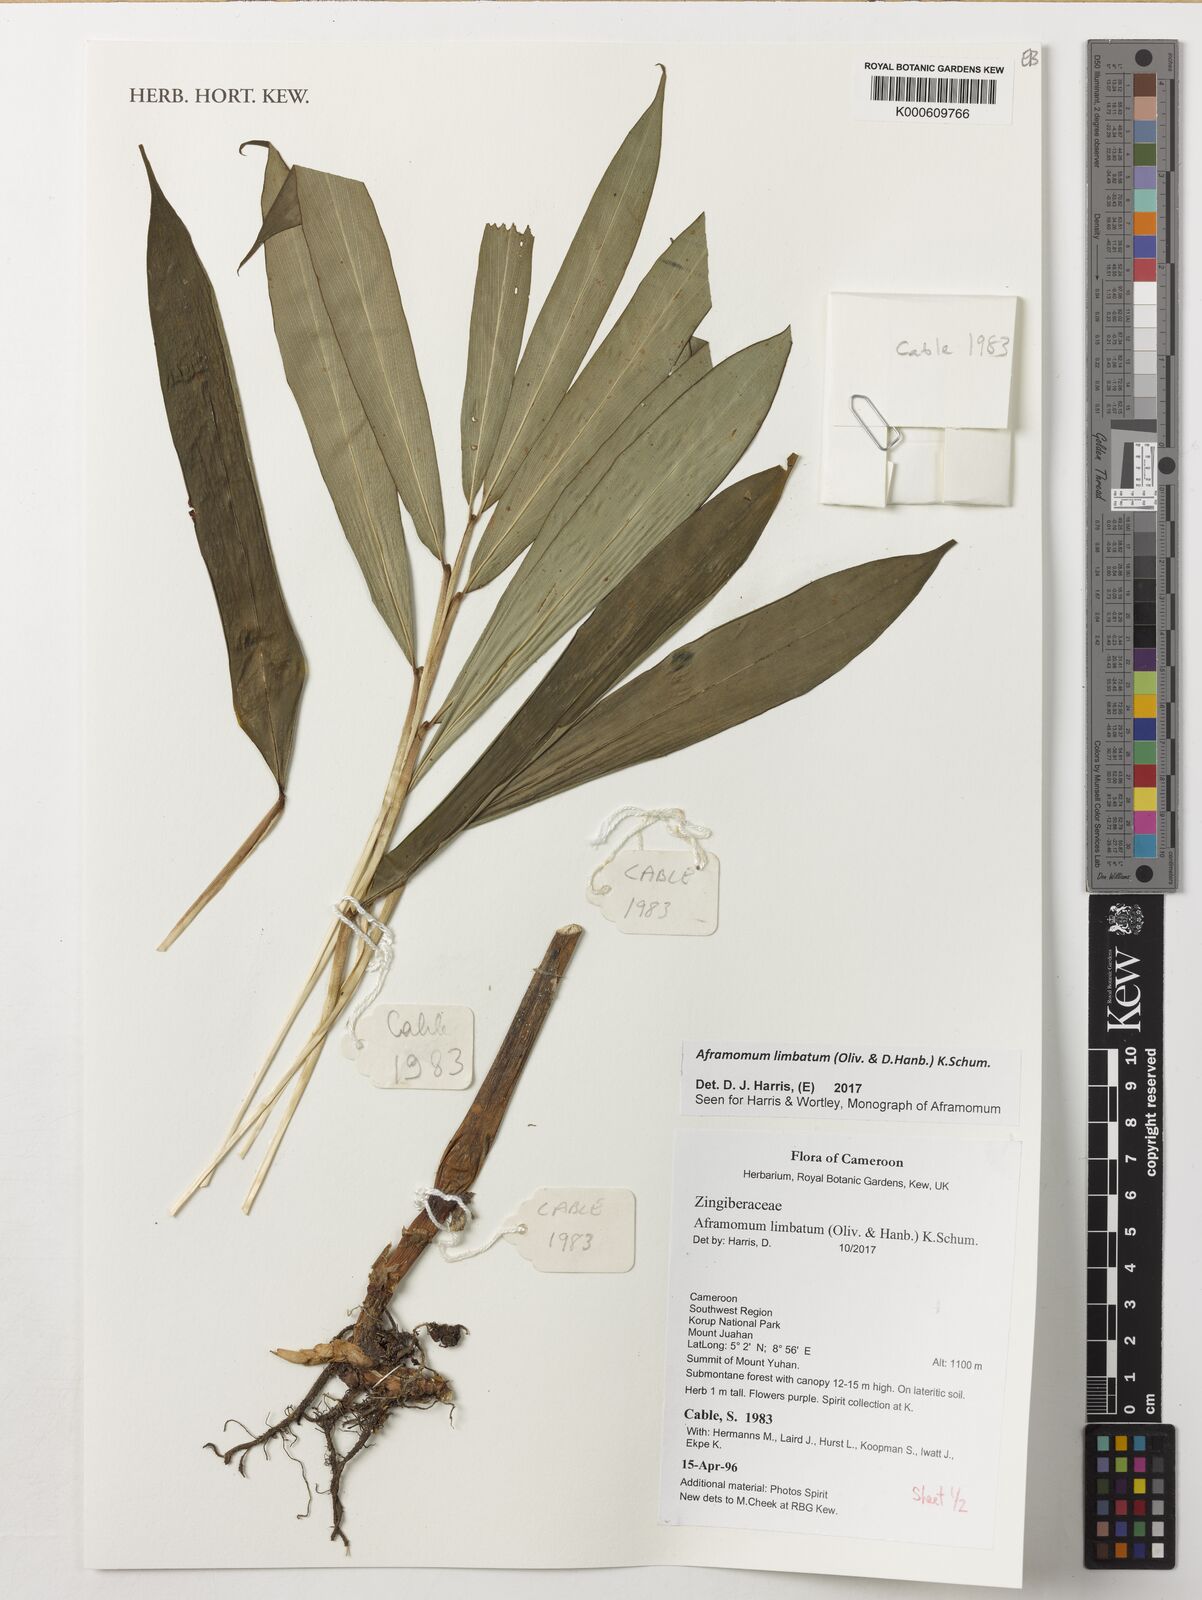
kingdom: Plantae
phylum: Tracheophyta
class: Liliopsida
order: Zingiberales
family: Zingiberaceae
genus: Aframomum
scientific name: Aframomum limbatum
